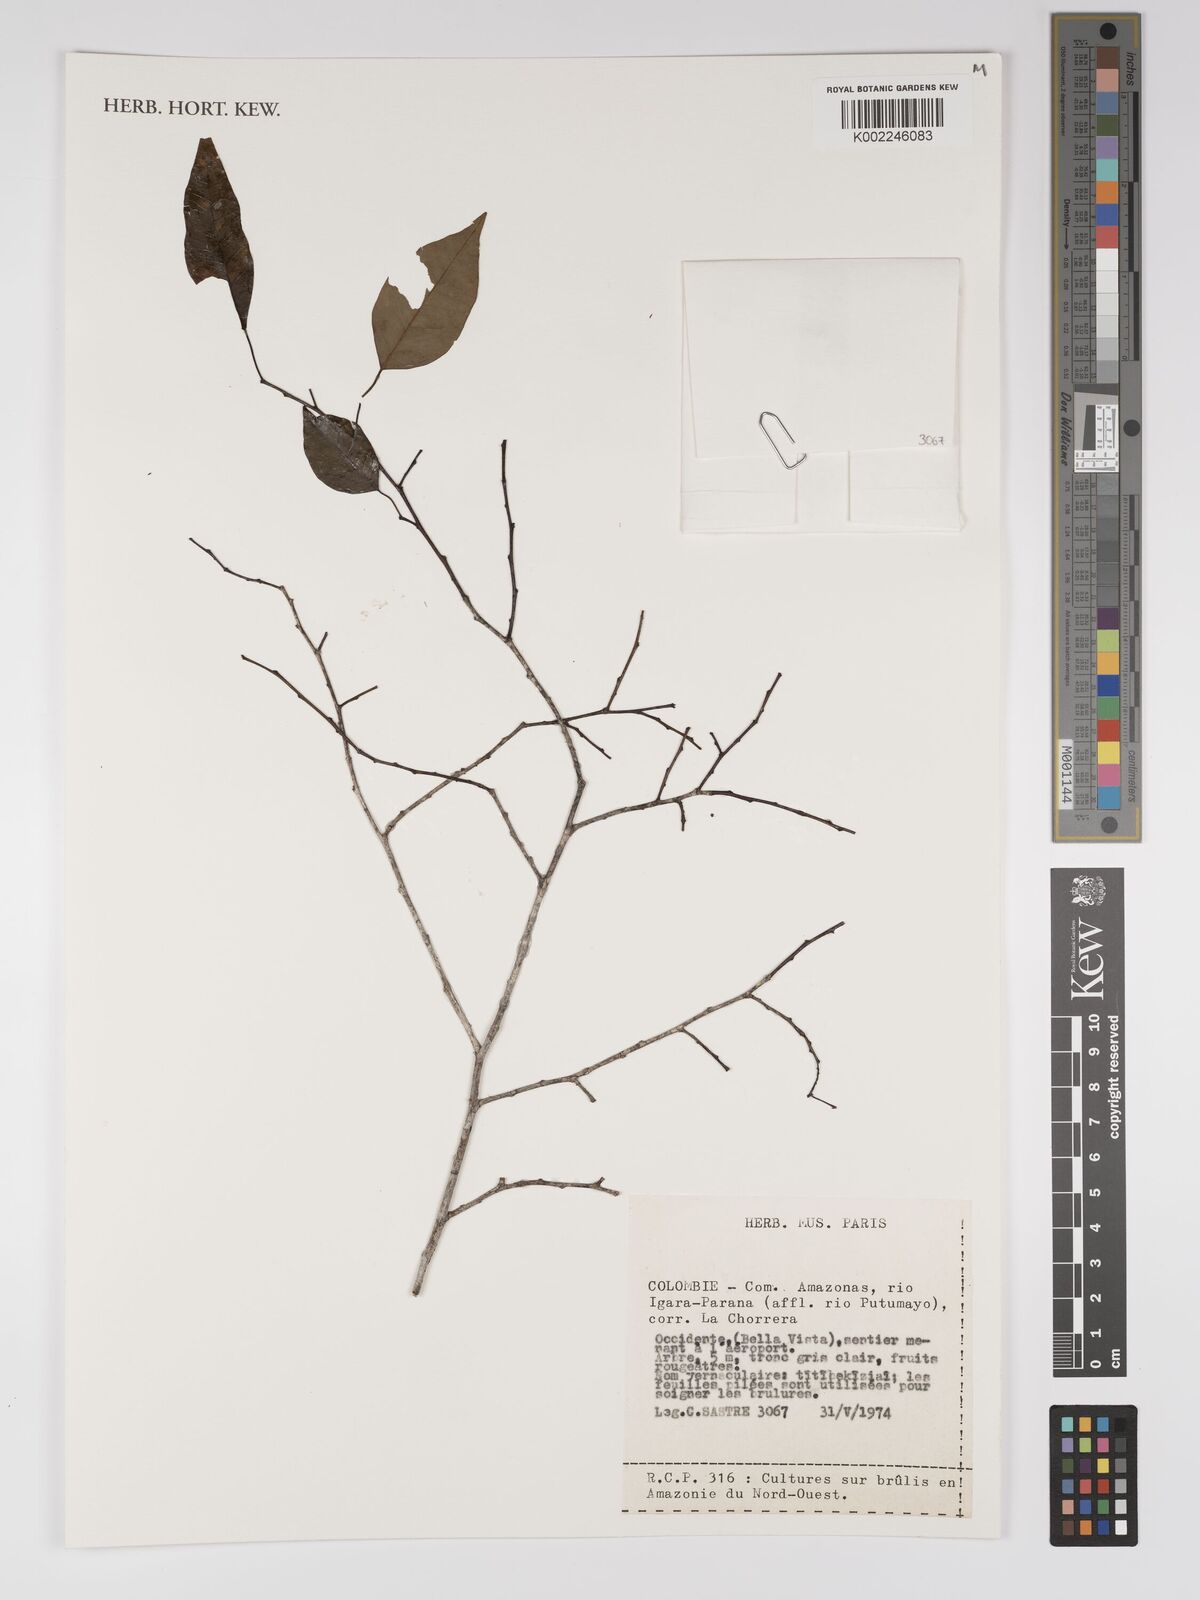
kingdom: Plantae
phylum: Tracheophyta
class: Magnoliopsida
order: Malpighiales
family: Euphorbiaceae
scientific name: Euphorbiaceae
